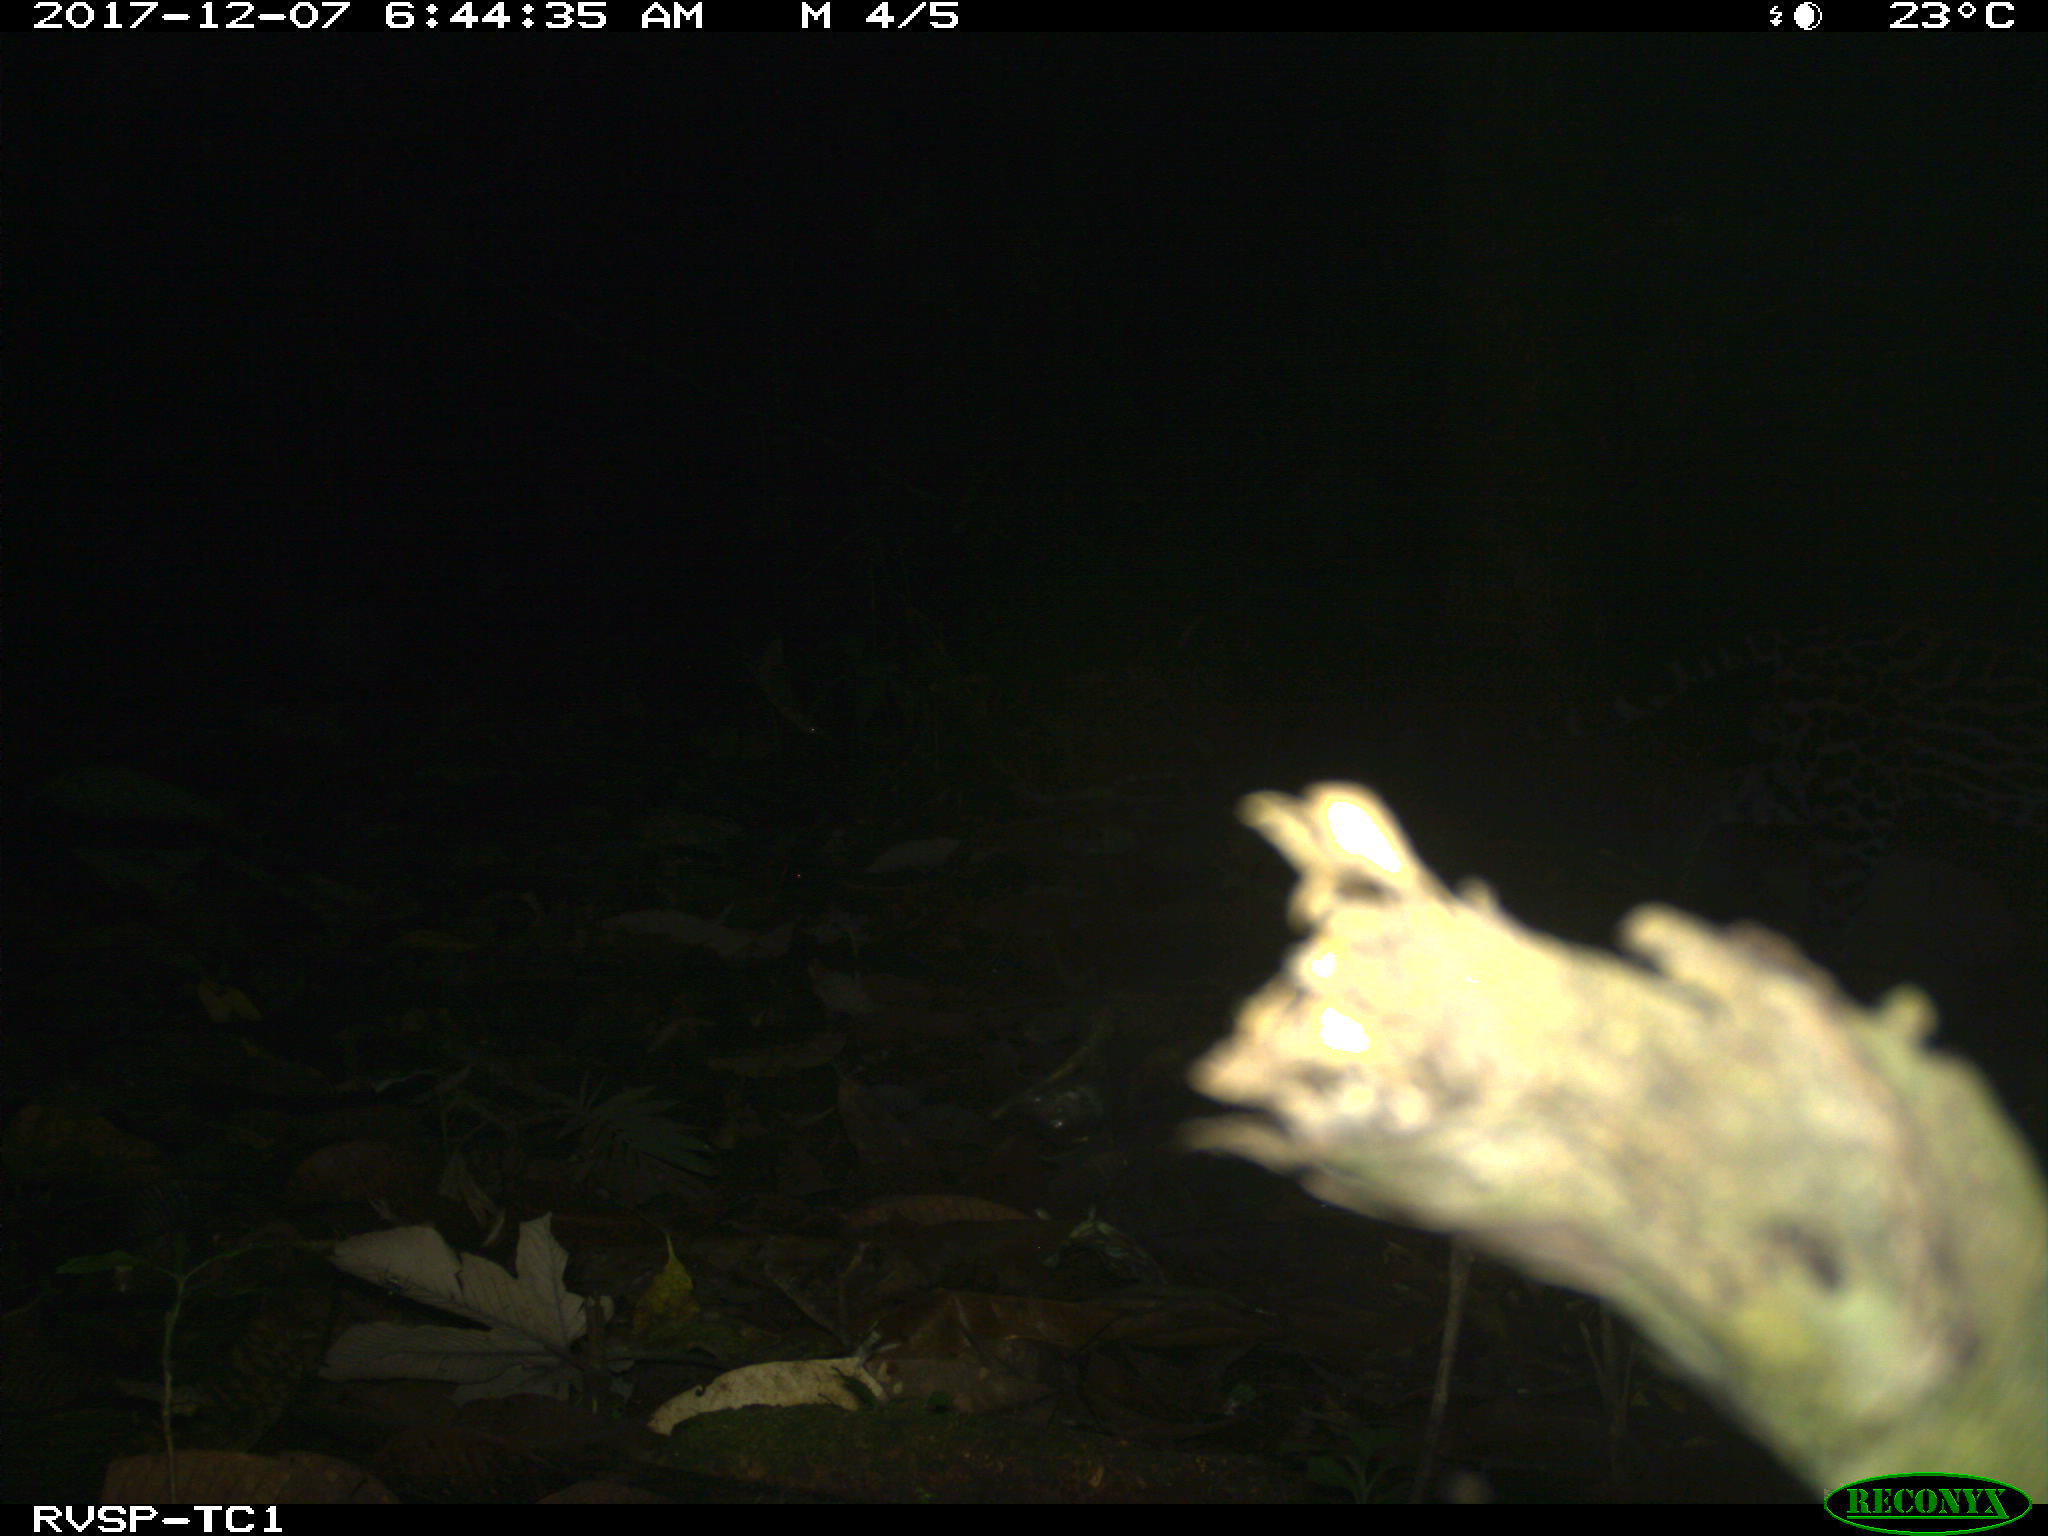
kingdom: Animalia
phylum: Chordata
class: Mammalia
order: Carnivora
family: Felidae
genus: Leopardus
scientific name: Leopardus pardalis
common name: Ocelot
